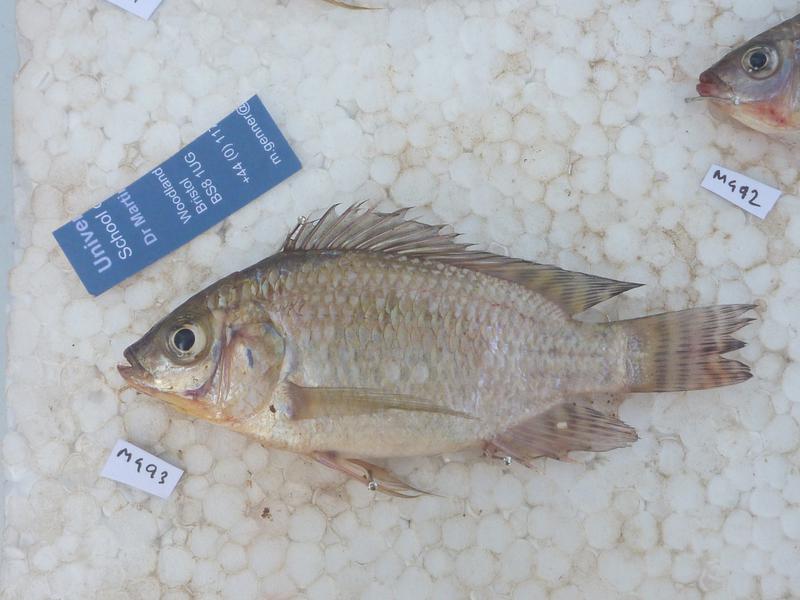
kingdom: Animalia
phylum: Chordata
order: Perciformes
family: Cichlidae
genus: Oreochromis
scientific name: Oreochromis niloticus
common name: Nile tilapia
